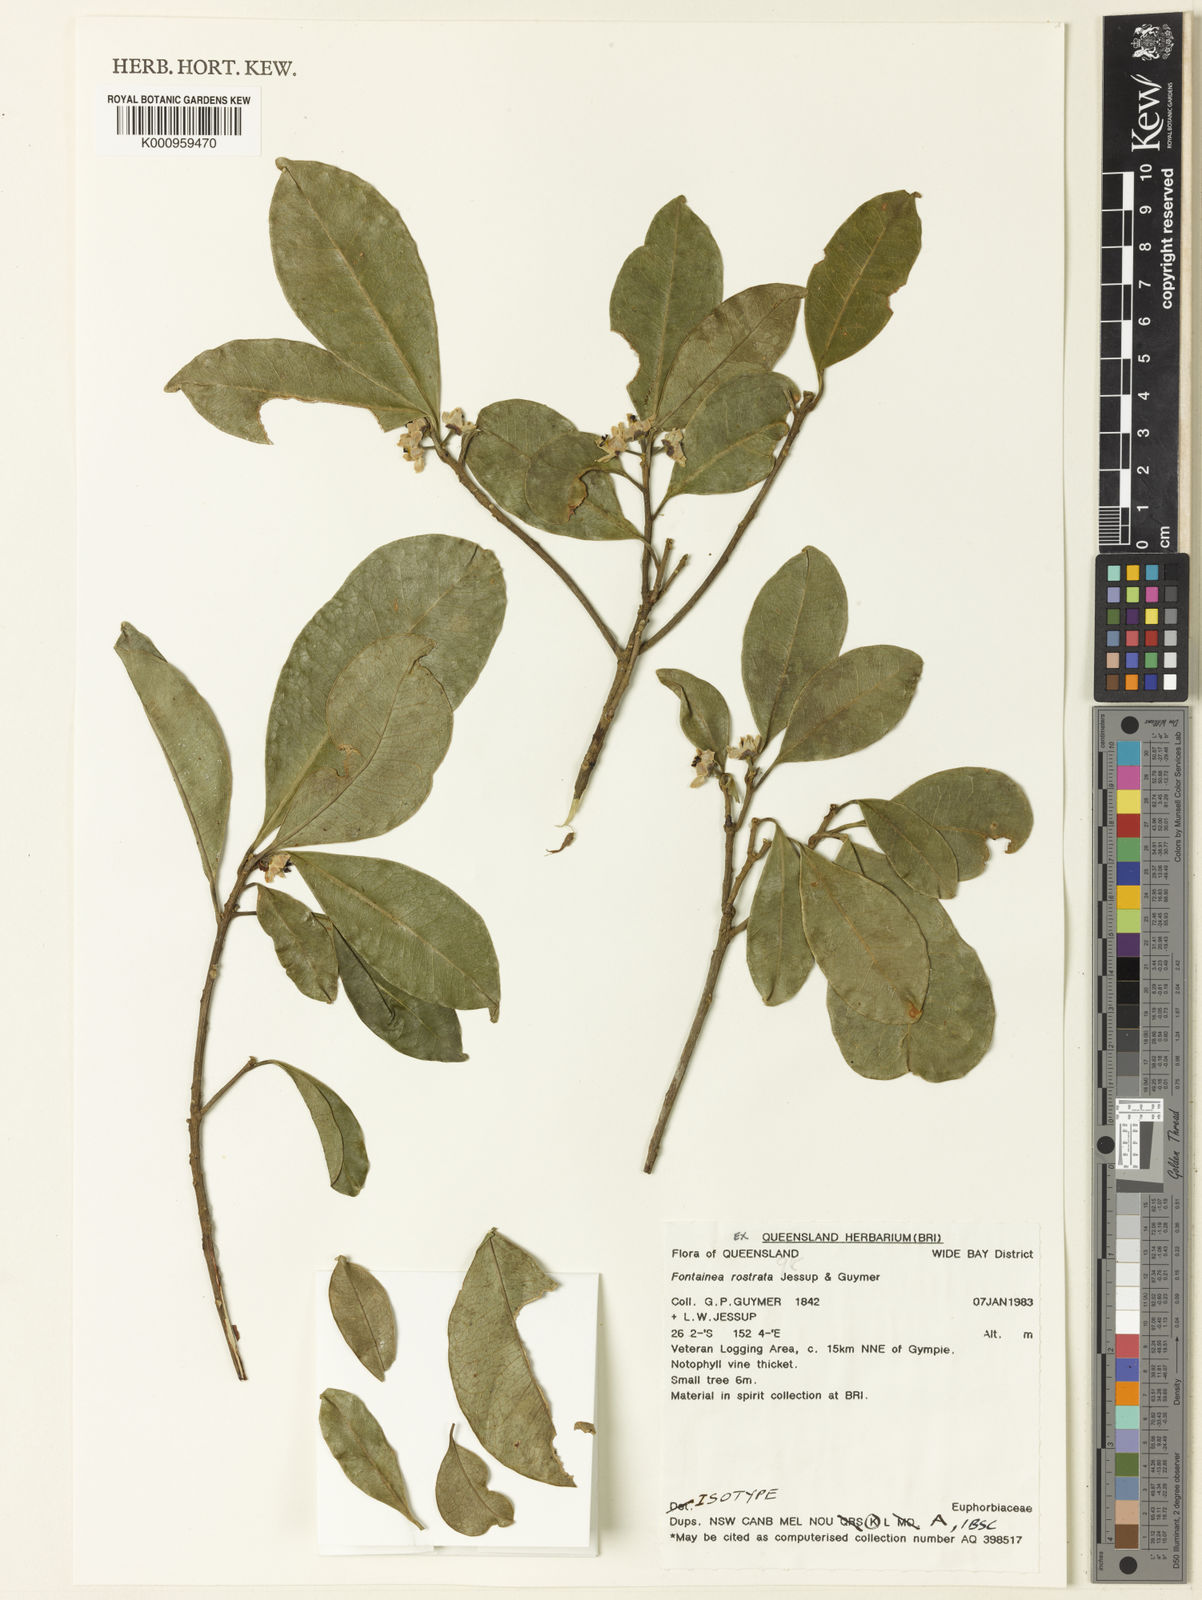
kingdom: Plantae
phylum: Tracheophyta
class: Magnoliopsida
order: Malpighiales
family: Euphorbiaceae
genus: Fontainea
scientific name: Fontainea rostrata
